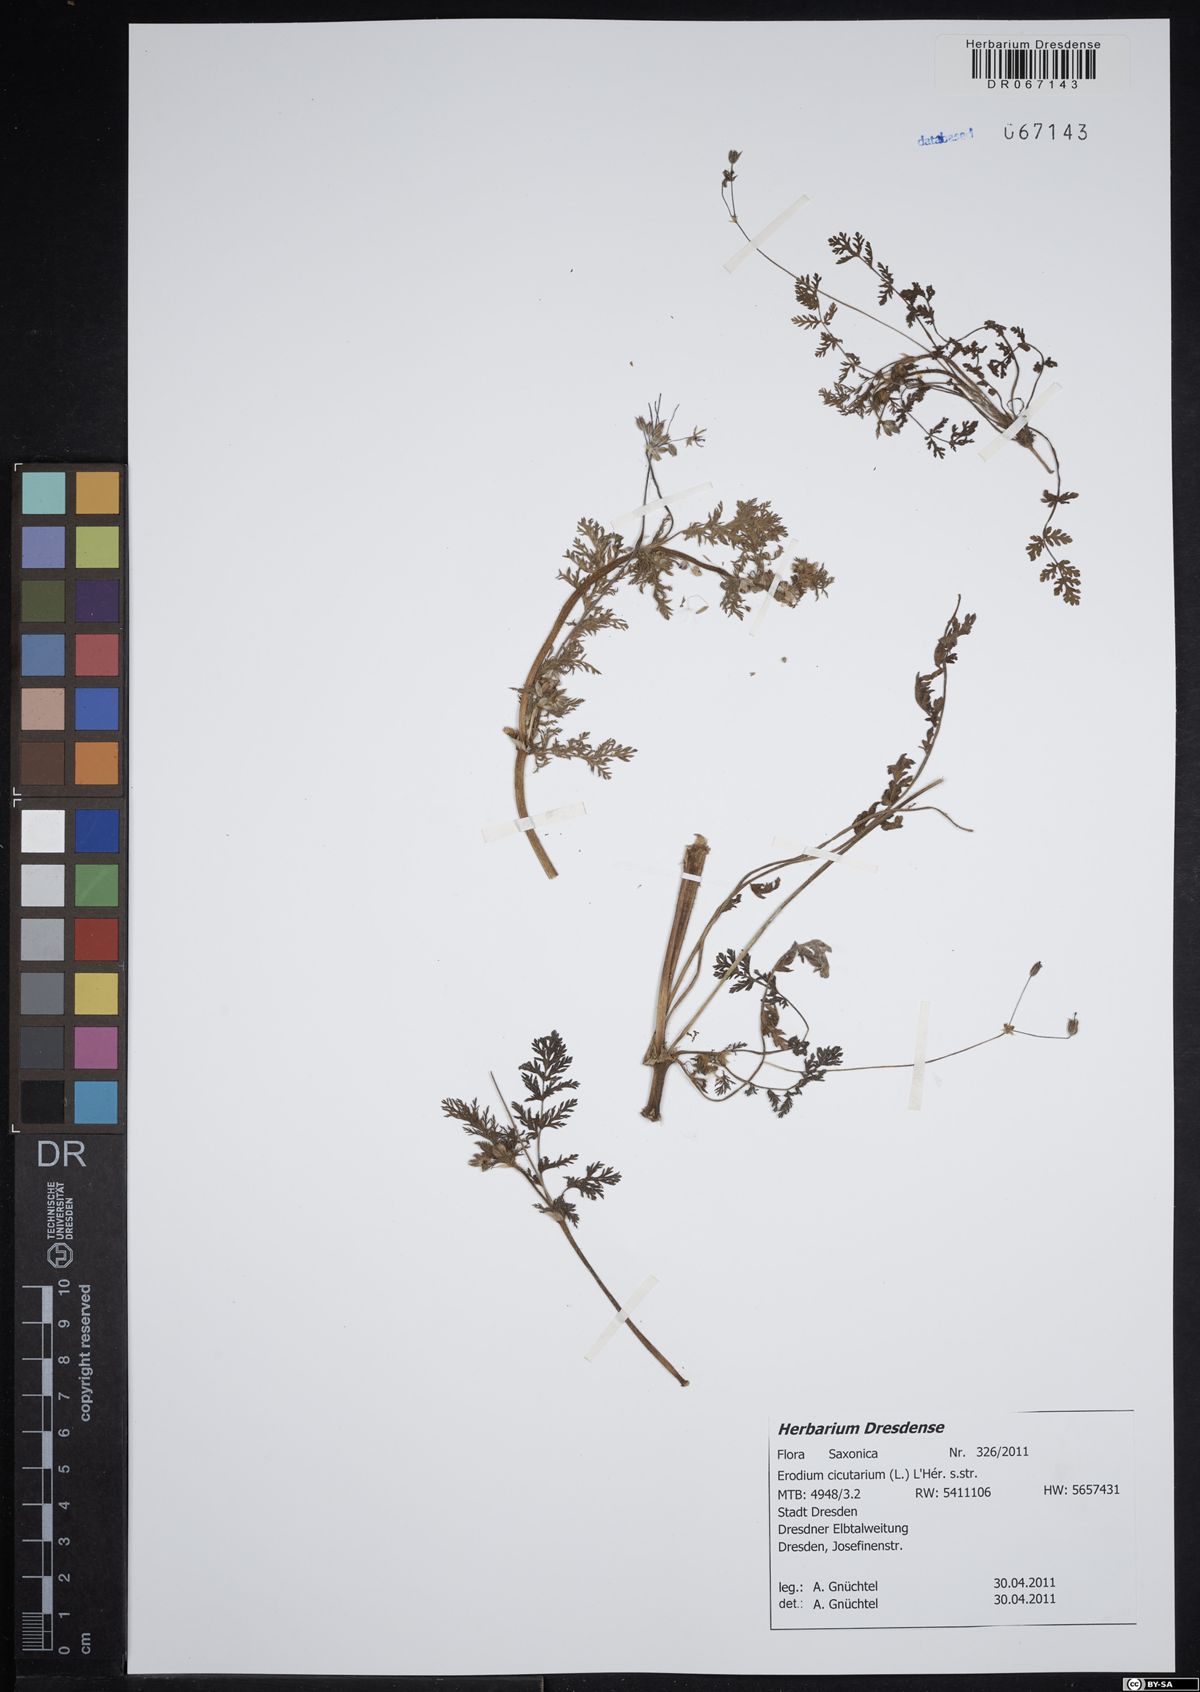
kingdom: Plantae
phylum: Tracheophyta
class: Magnoliopsida
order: Geraniales
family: Geraniaceae
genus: Erodium
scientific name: Erodium cicutarium
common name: Common stork's-bill
